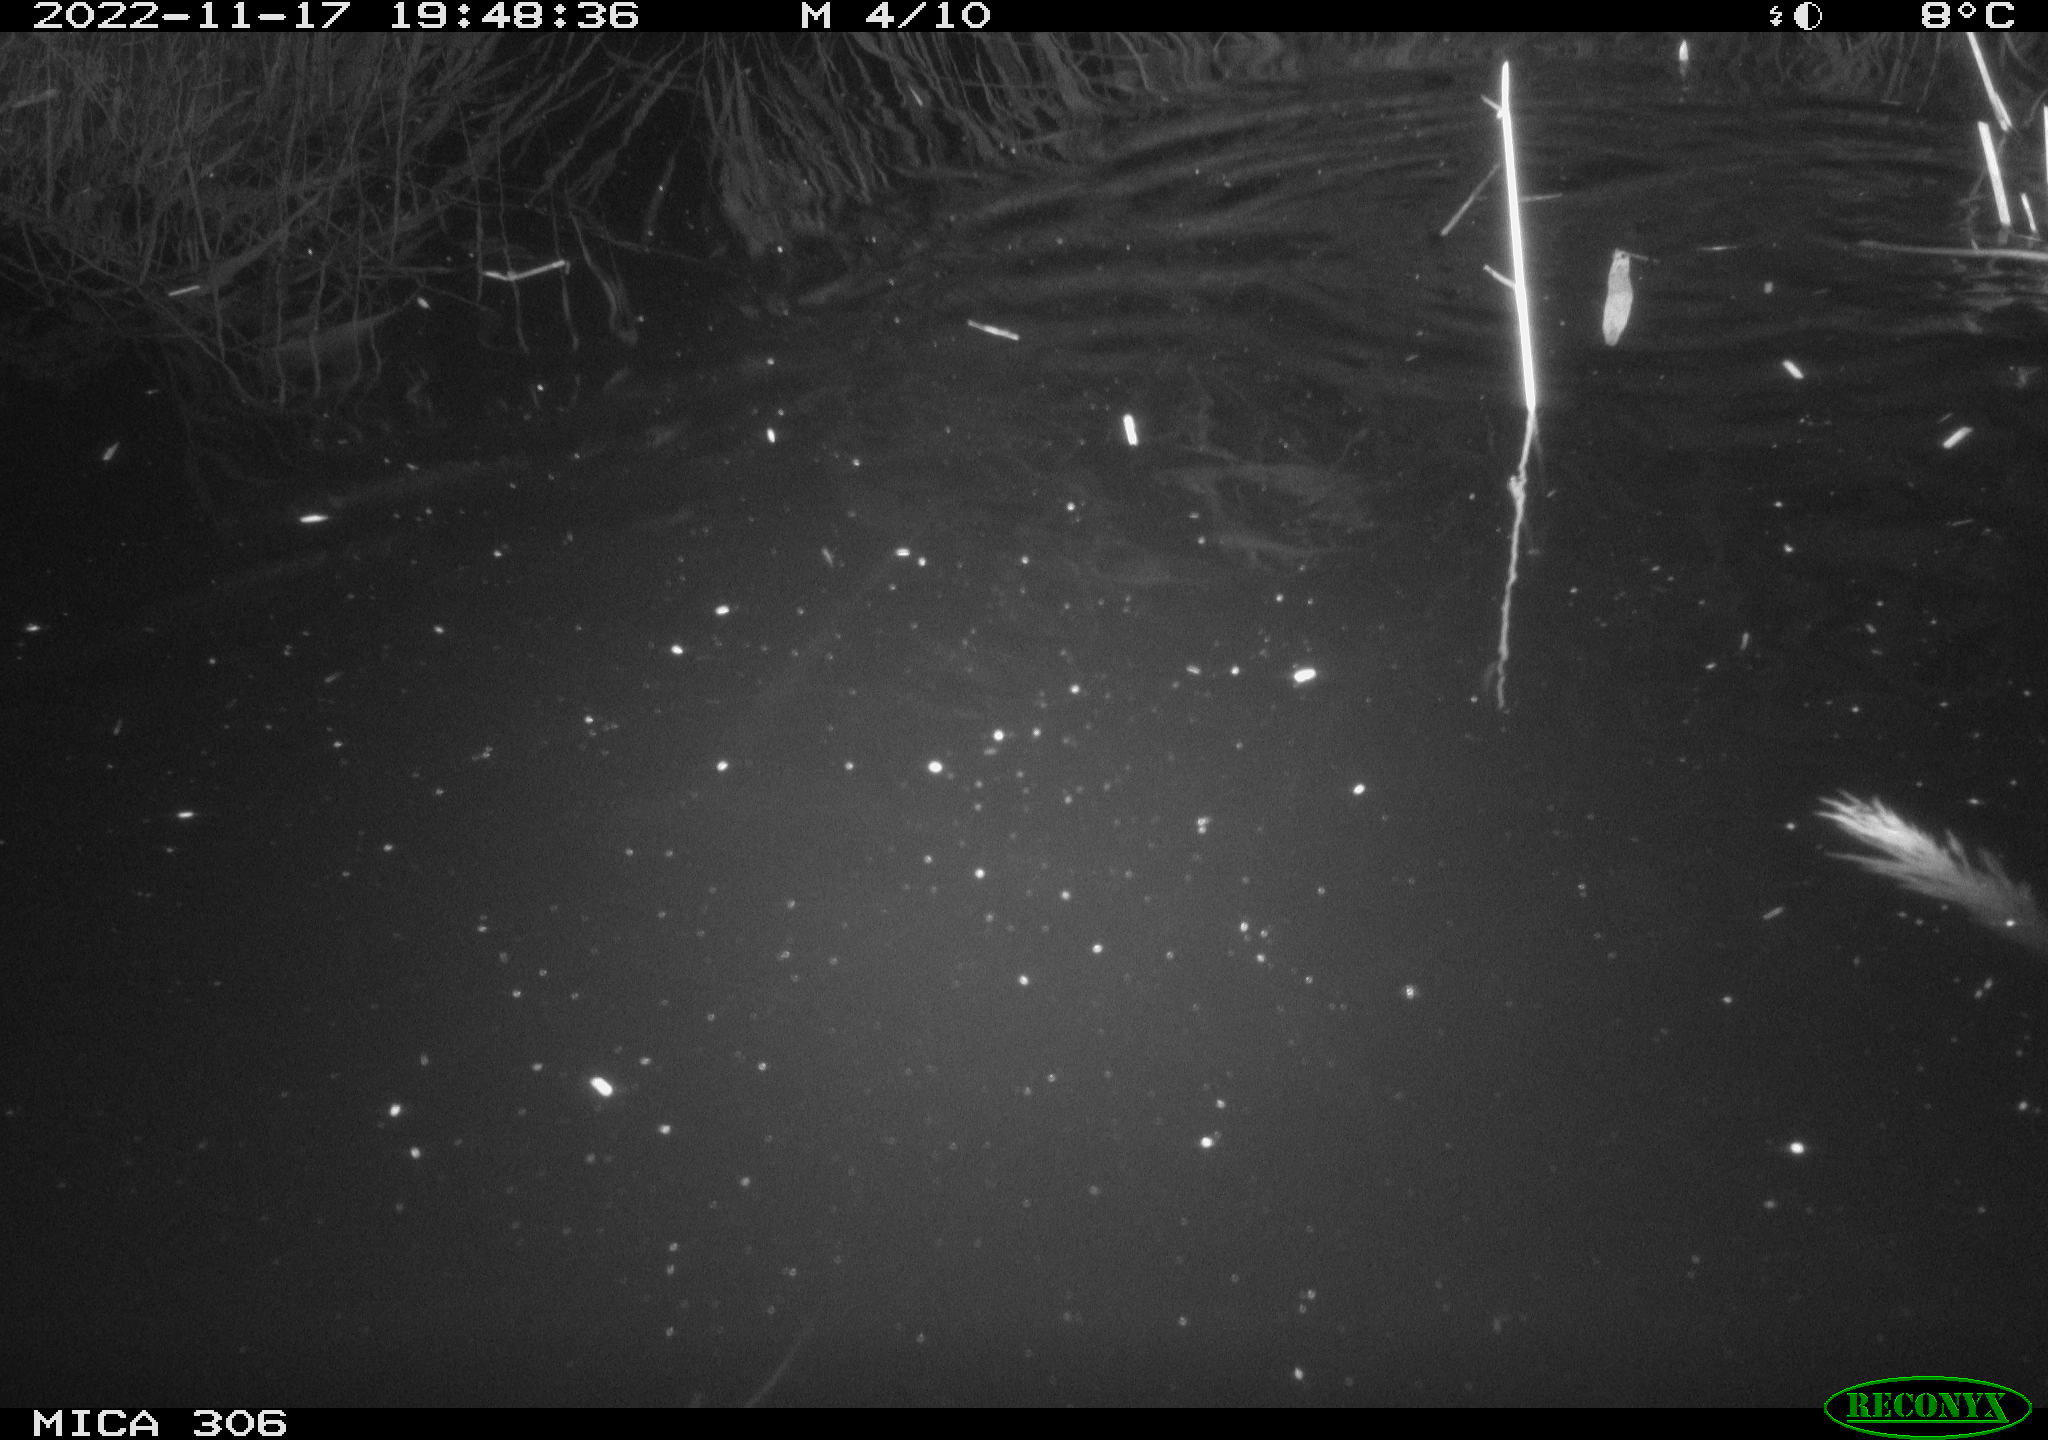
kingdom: Animalia
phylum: Chordata
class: Mammalia
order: Rodentia
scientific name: Rodentia
